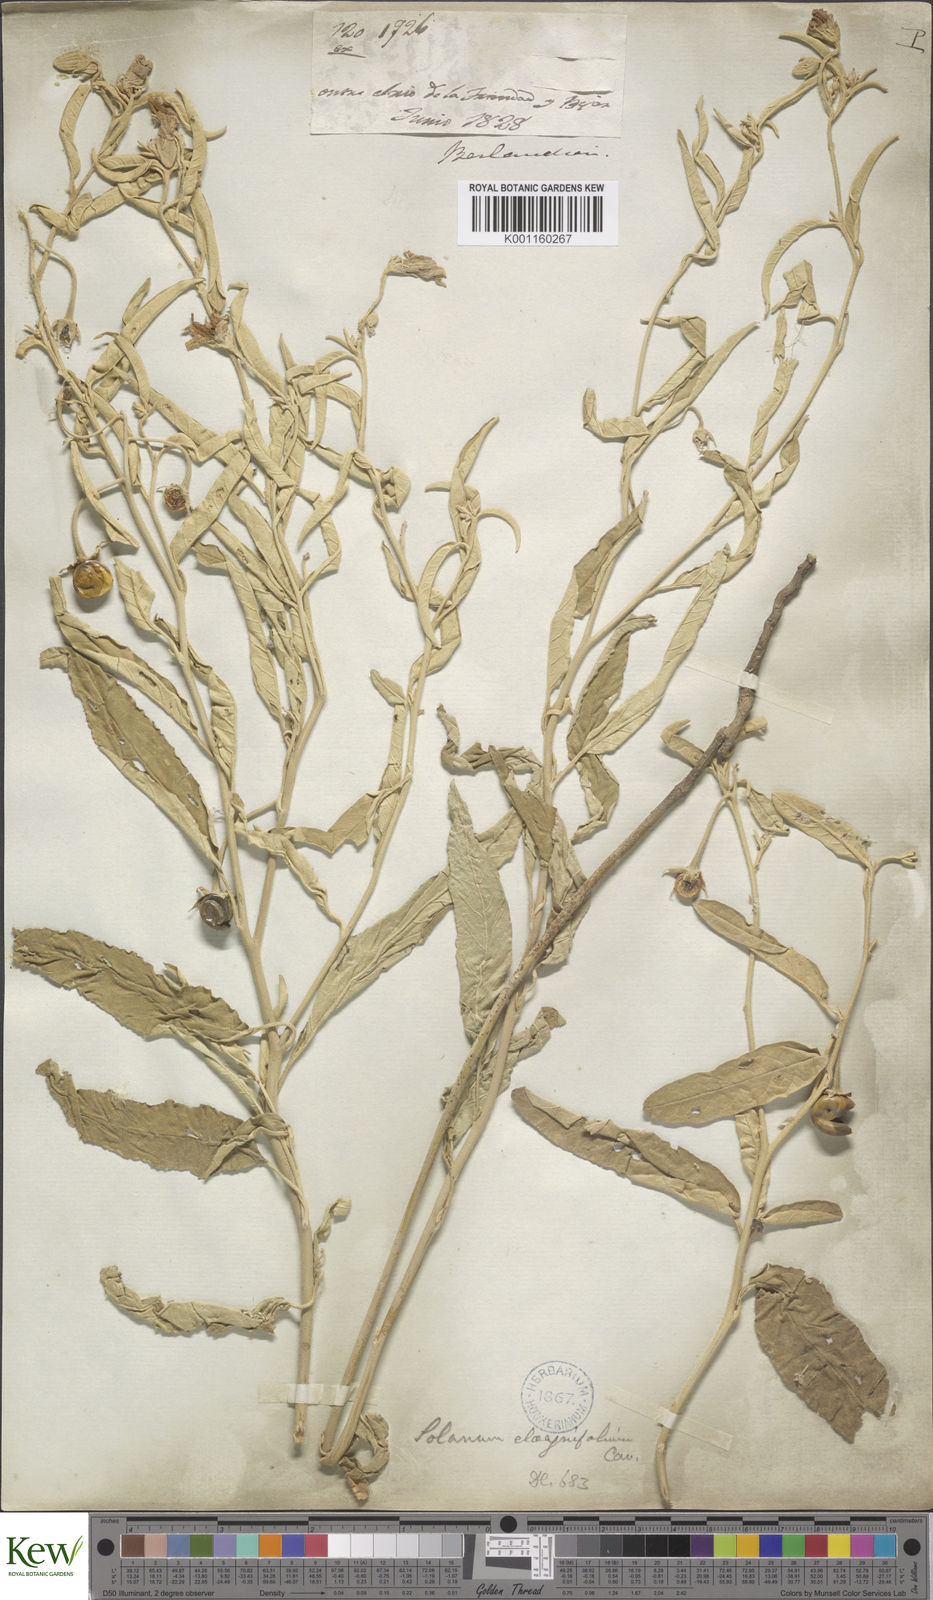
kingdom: Plantae
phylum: Tracheophyta
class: Magnoliopsida
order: Solanales
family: Solanaceae
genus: Solanum
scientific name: Solanum elaeagnifolium
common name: Silverleaf nightshade
